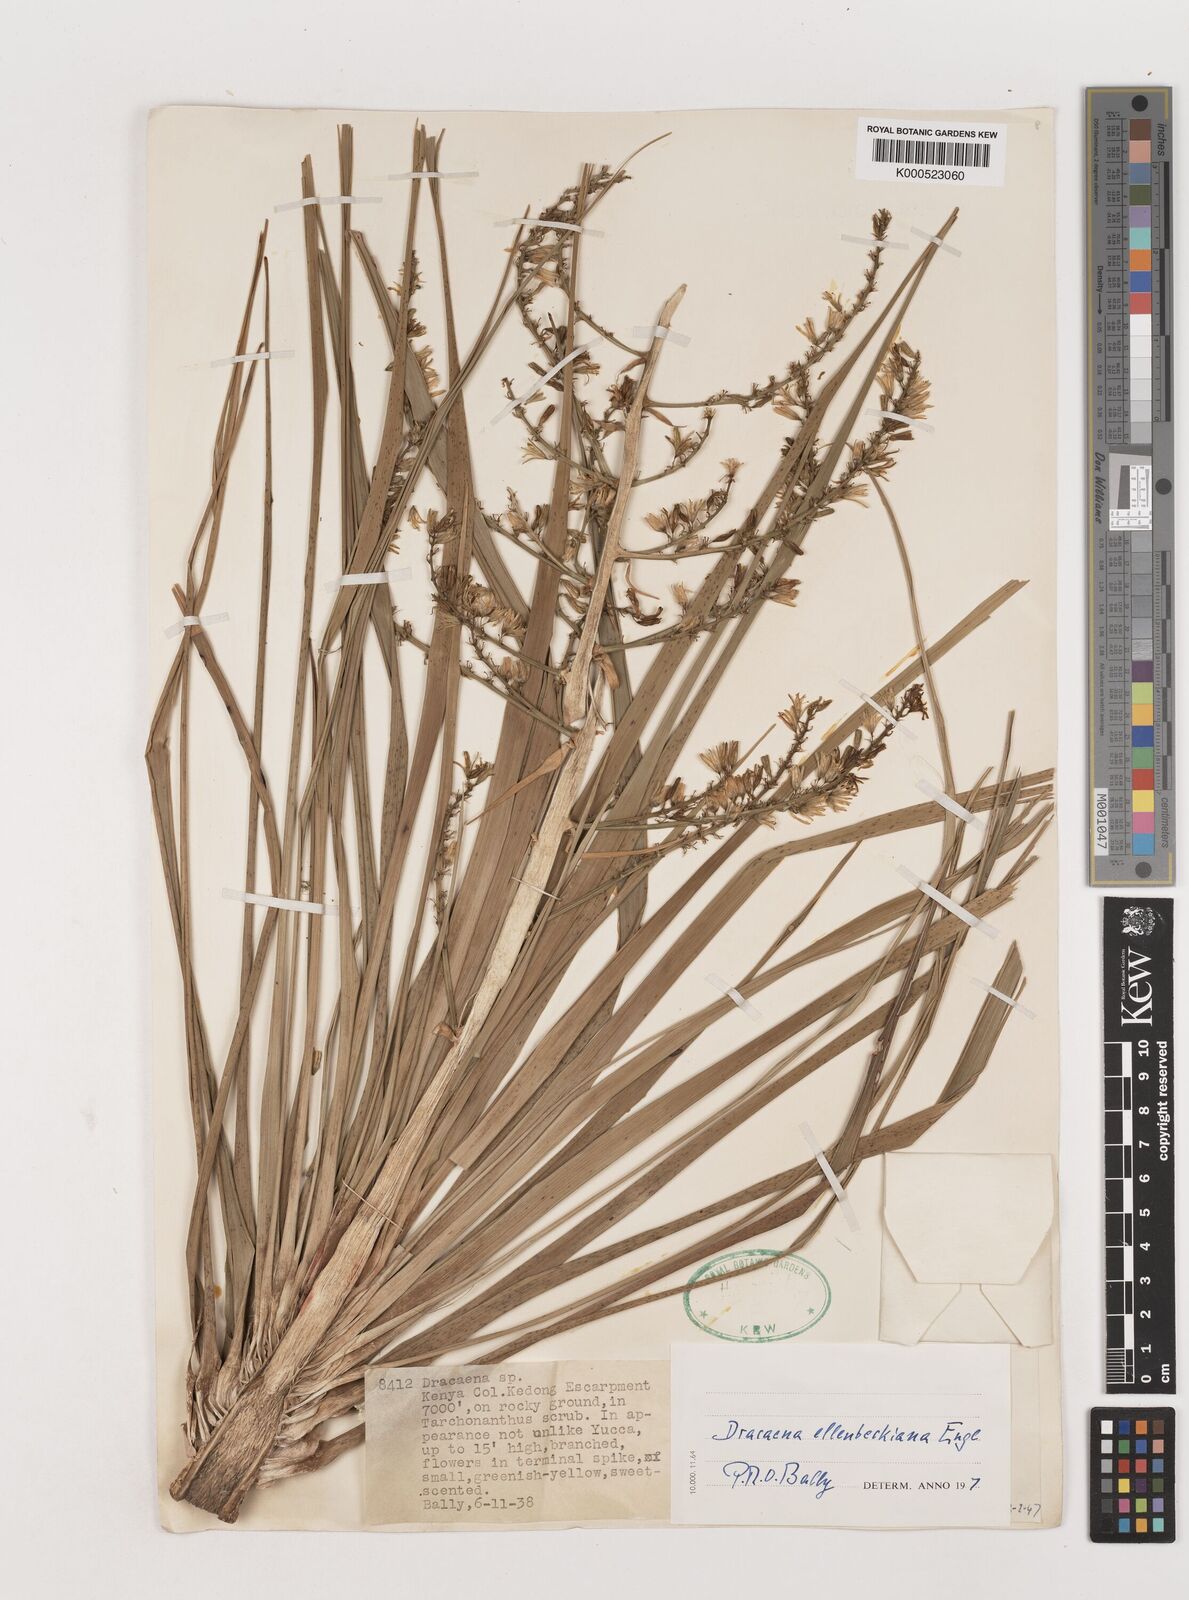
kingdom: Plantae
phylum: Tracheophyta
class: Liliopsida
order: Asparagales
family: Asparagaceae
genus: Dracaena
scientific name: Dracaena ellenbeckiana
